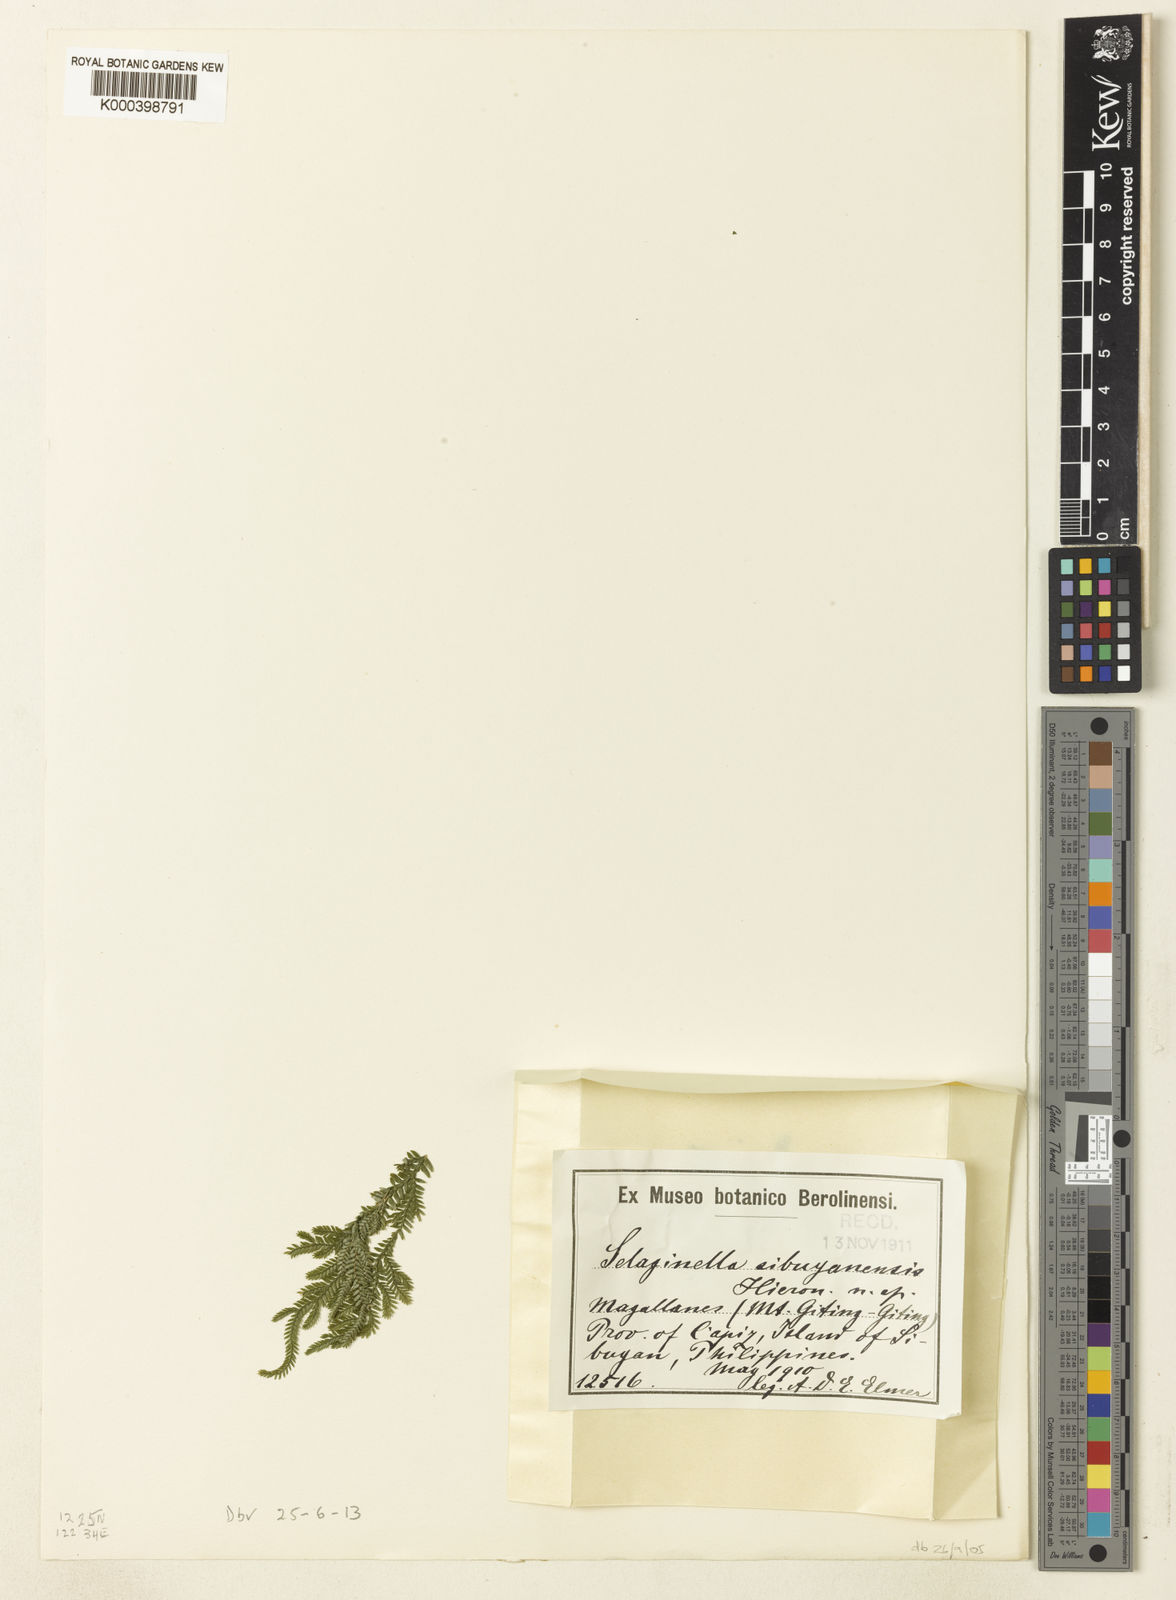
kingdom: Plantae
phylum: Tracheophyta
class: Lycopodiopsida
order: Selaginellales
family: Selaginellaceae
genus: Selaginella
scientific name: Selaginella jagorii
